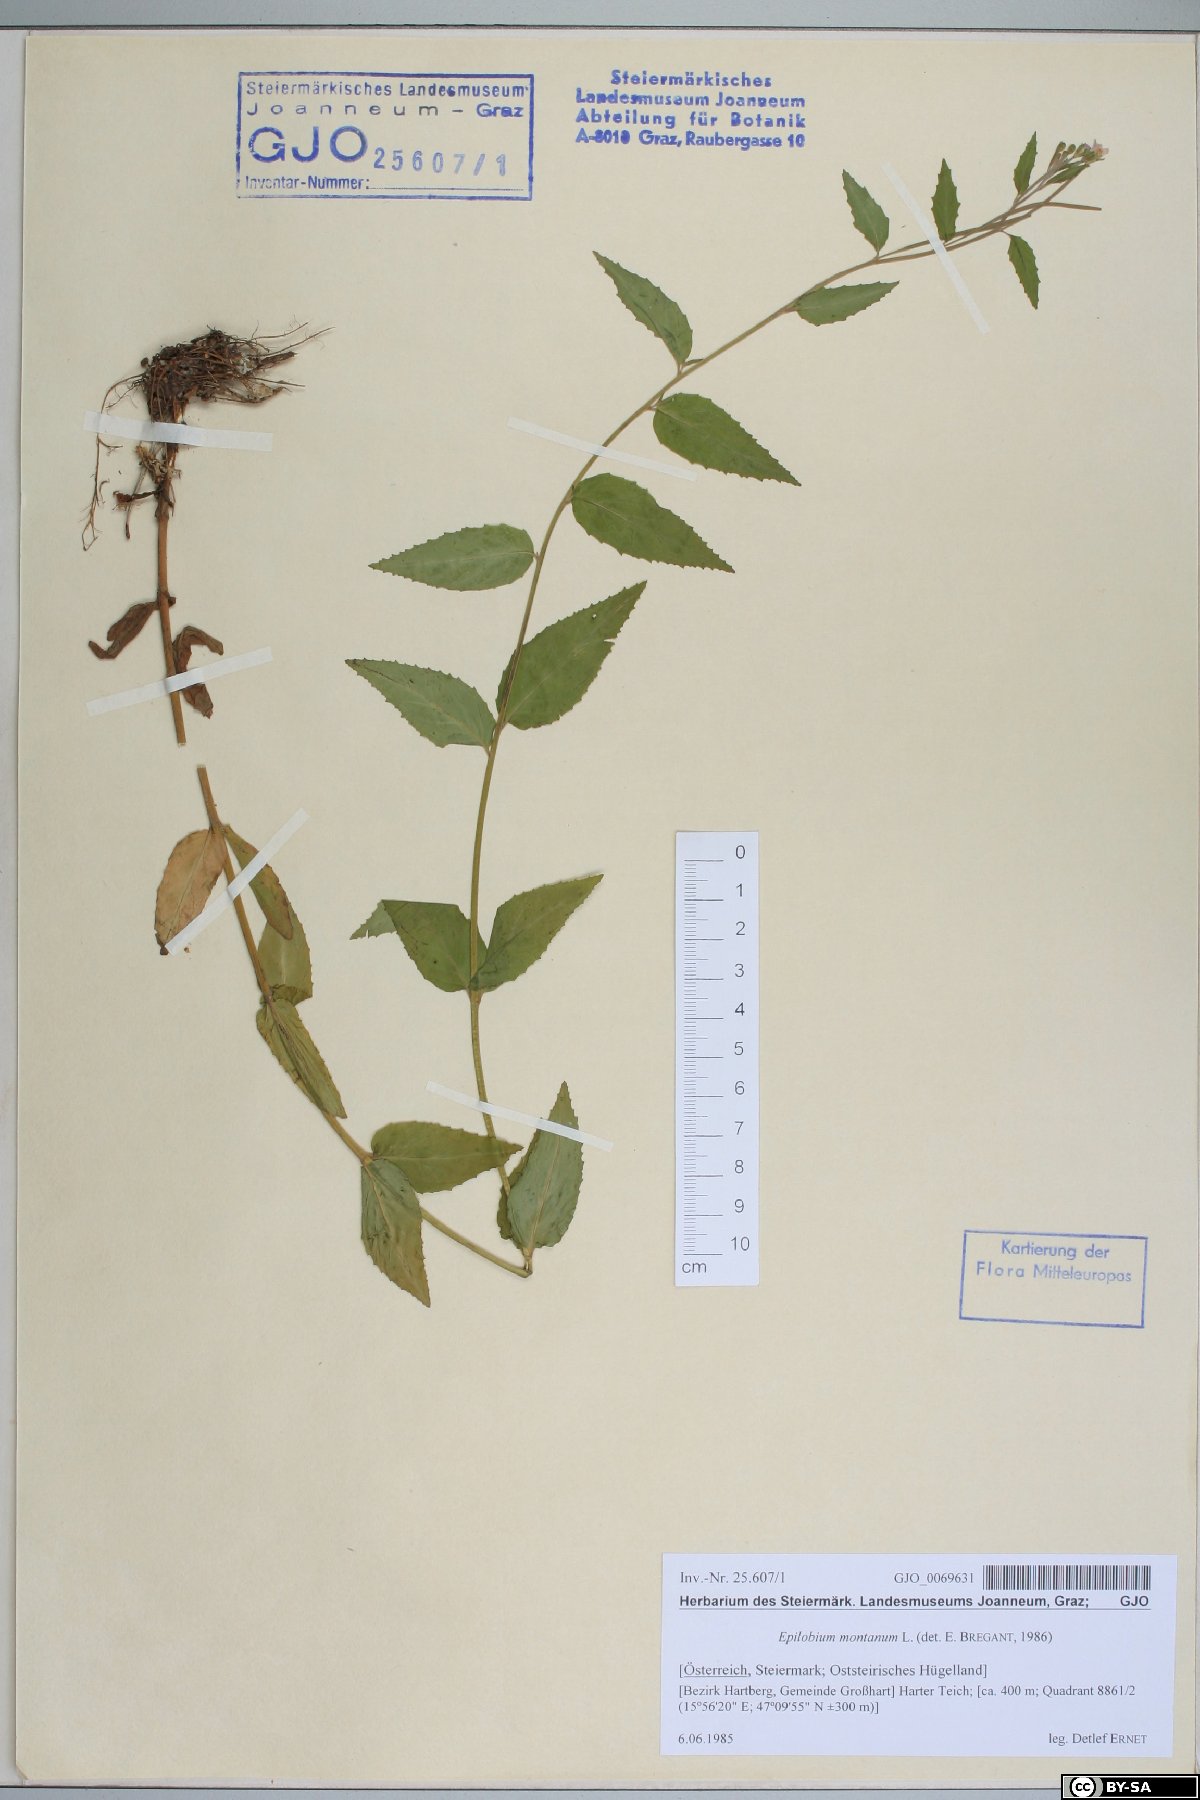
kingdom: Plantae
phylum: Tracheophyta
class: Magnoliopsida
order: Myrtales
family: Onagraceae
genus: Epilobium
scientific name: Epilobium montanum
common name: Broad-leaved willowherb
